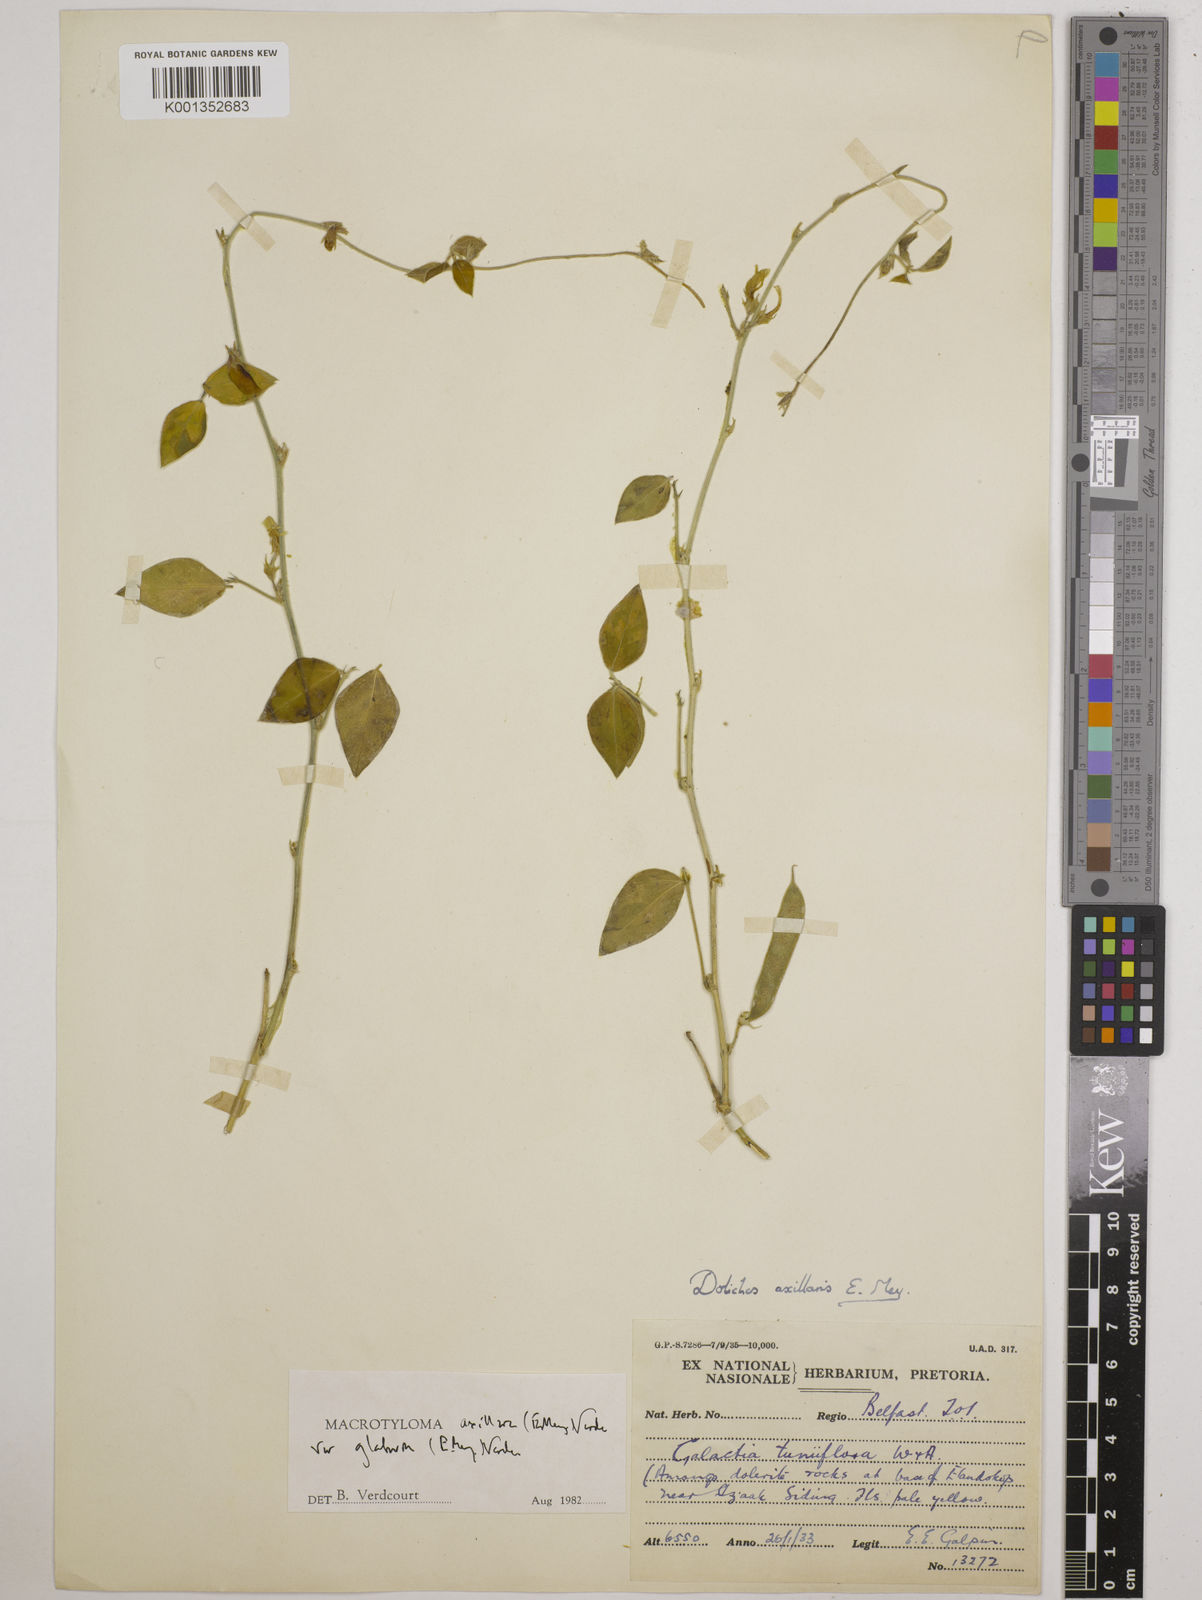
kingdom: Plantae
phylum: Tracheophyta
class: Magnoliopsida
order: Fabales
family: Fabaceae
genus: Macrotyloma
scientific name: Macrotyloma axillare
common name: Perennial horsegram
